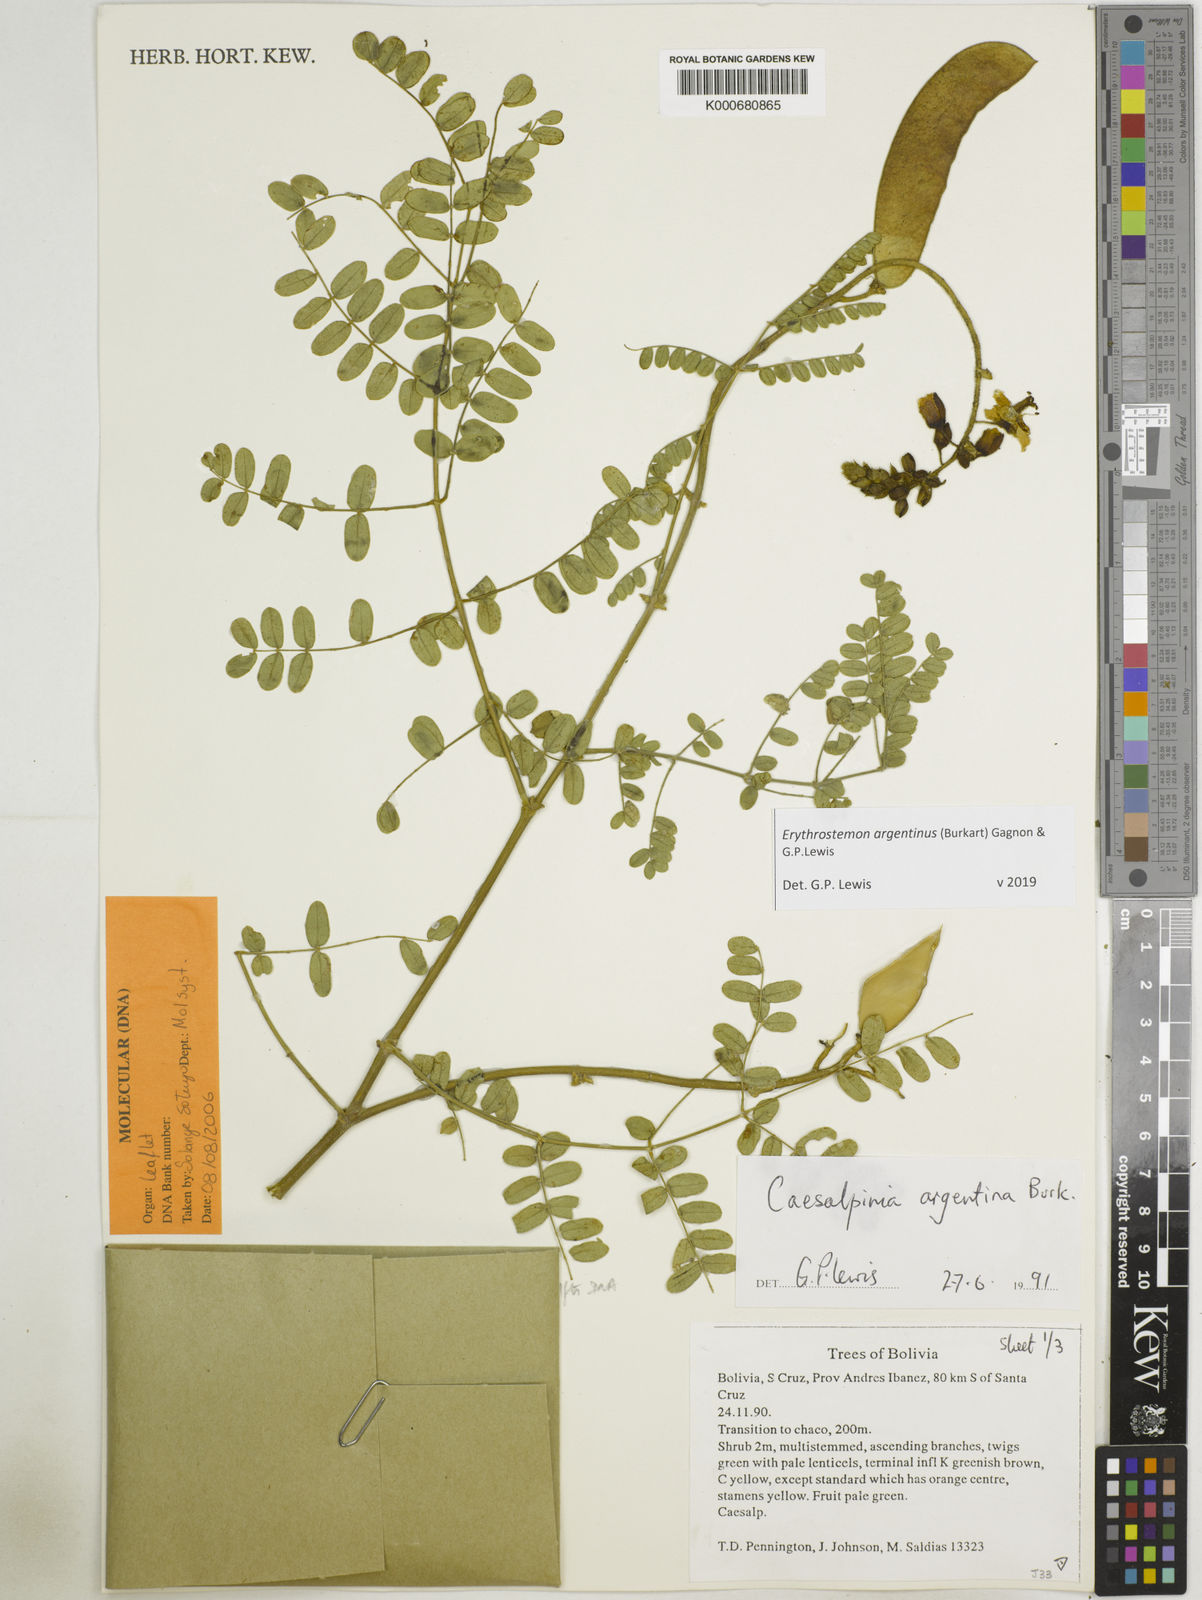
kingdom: Plantae
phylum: Tracheophyta
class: Magnoliopsida
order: Fabales
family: Fabaceae
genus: Erythrostemon
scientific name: Erythrostemon argentinus
